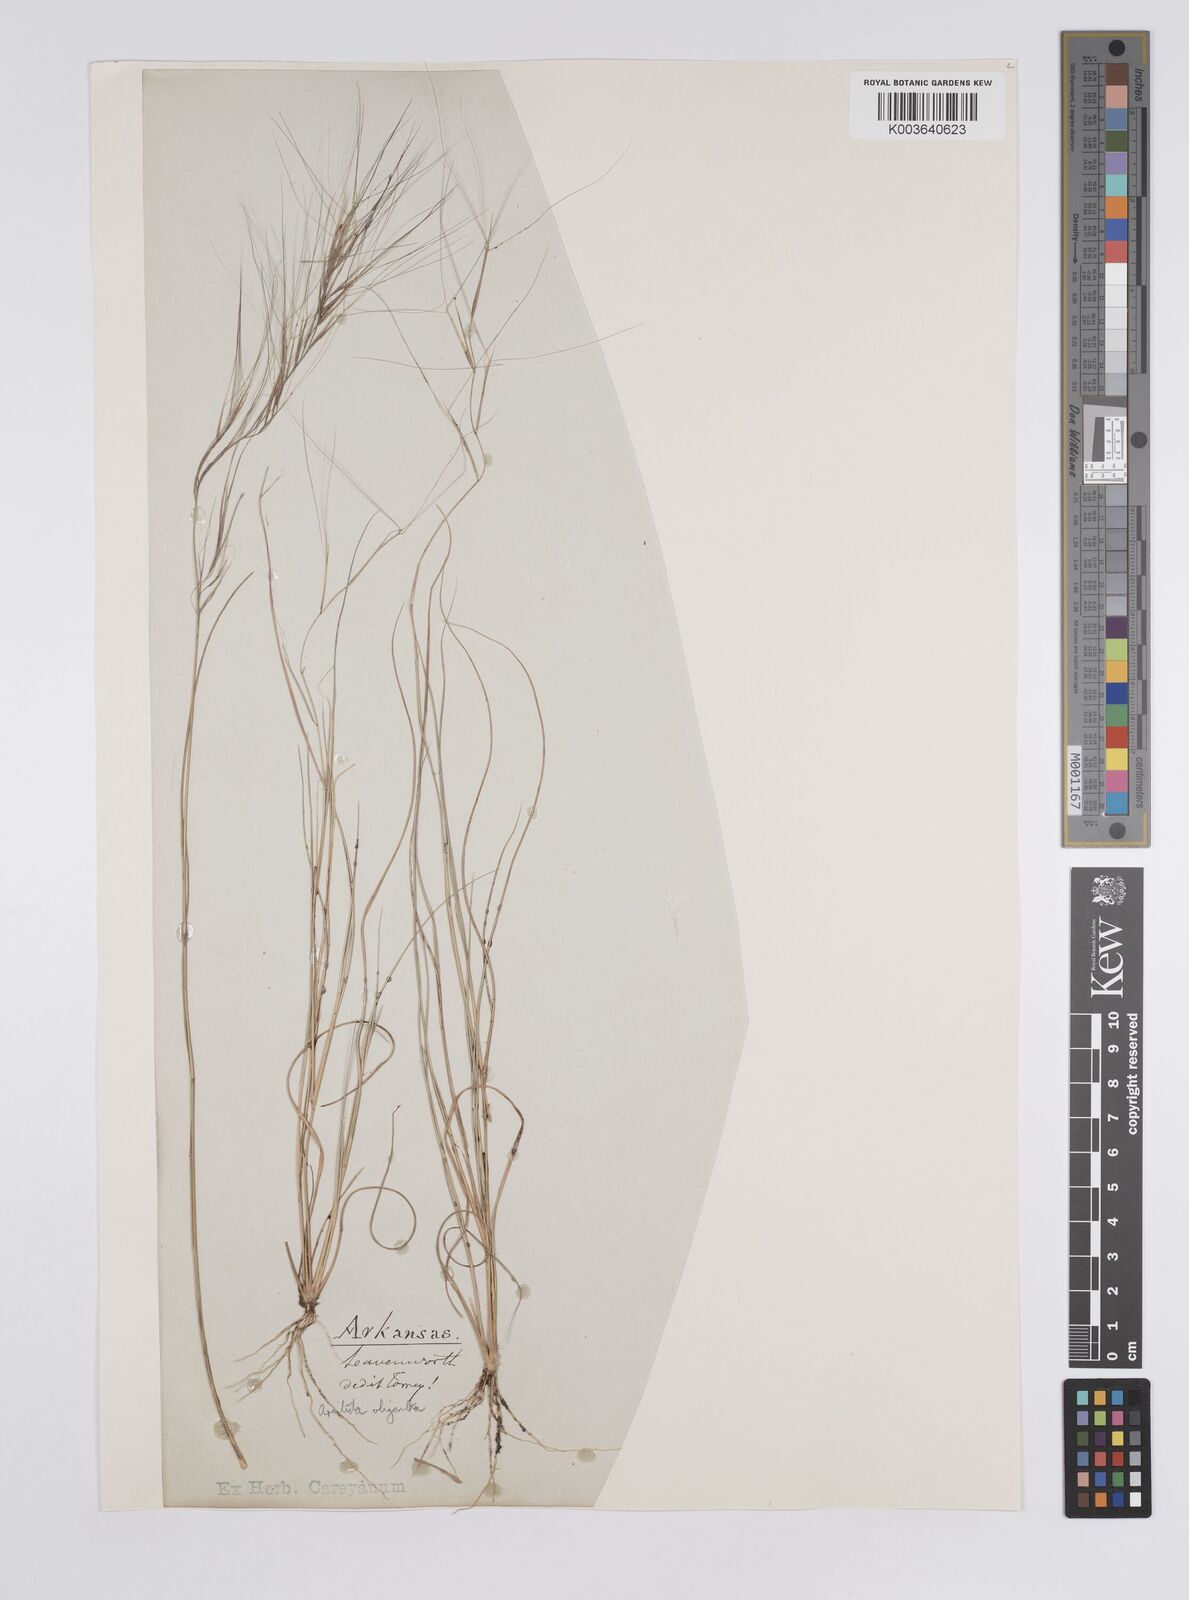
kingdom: Plantae
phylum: Tracheophyta
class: Liliopsida
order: Poales
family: Poaceae
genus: Aristida
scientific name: Aristida oligantha
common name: Few-flowered aristida
